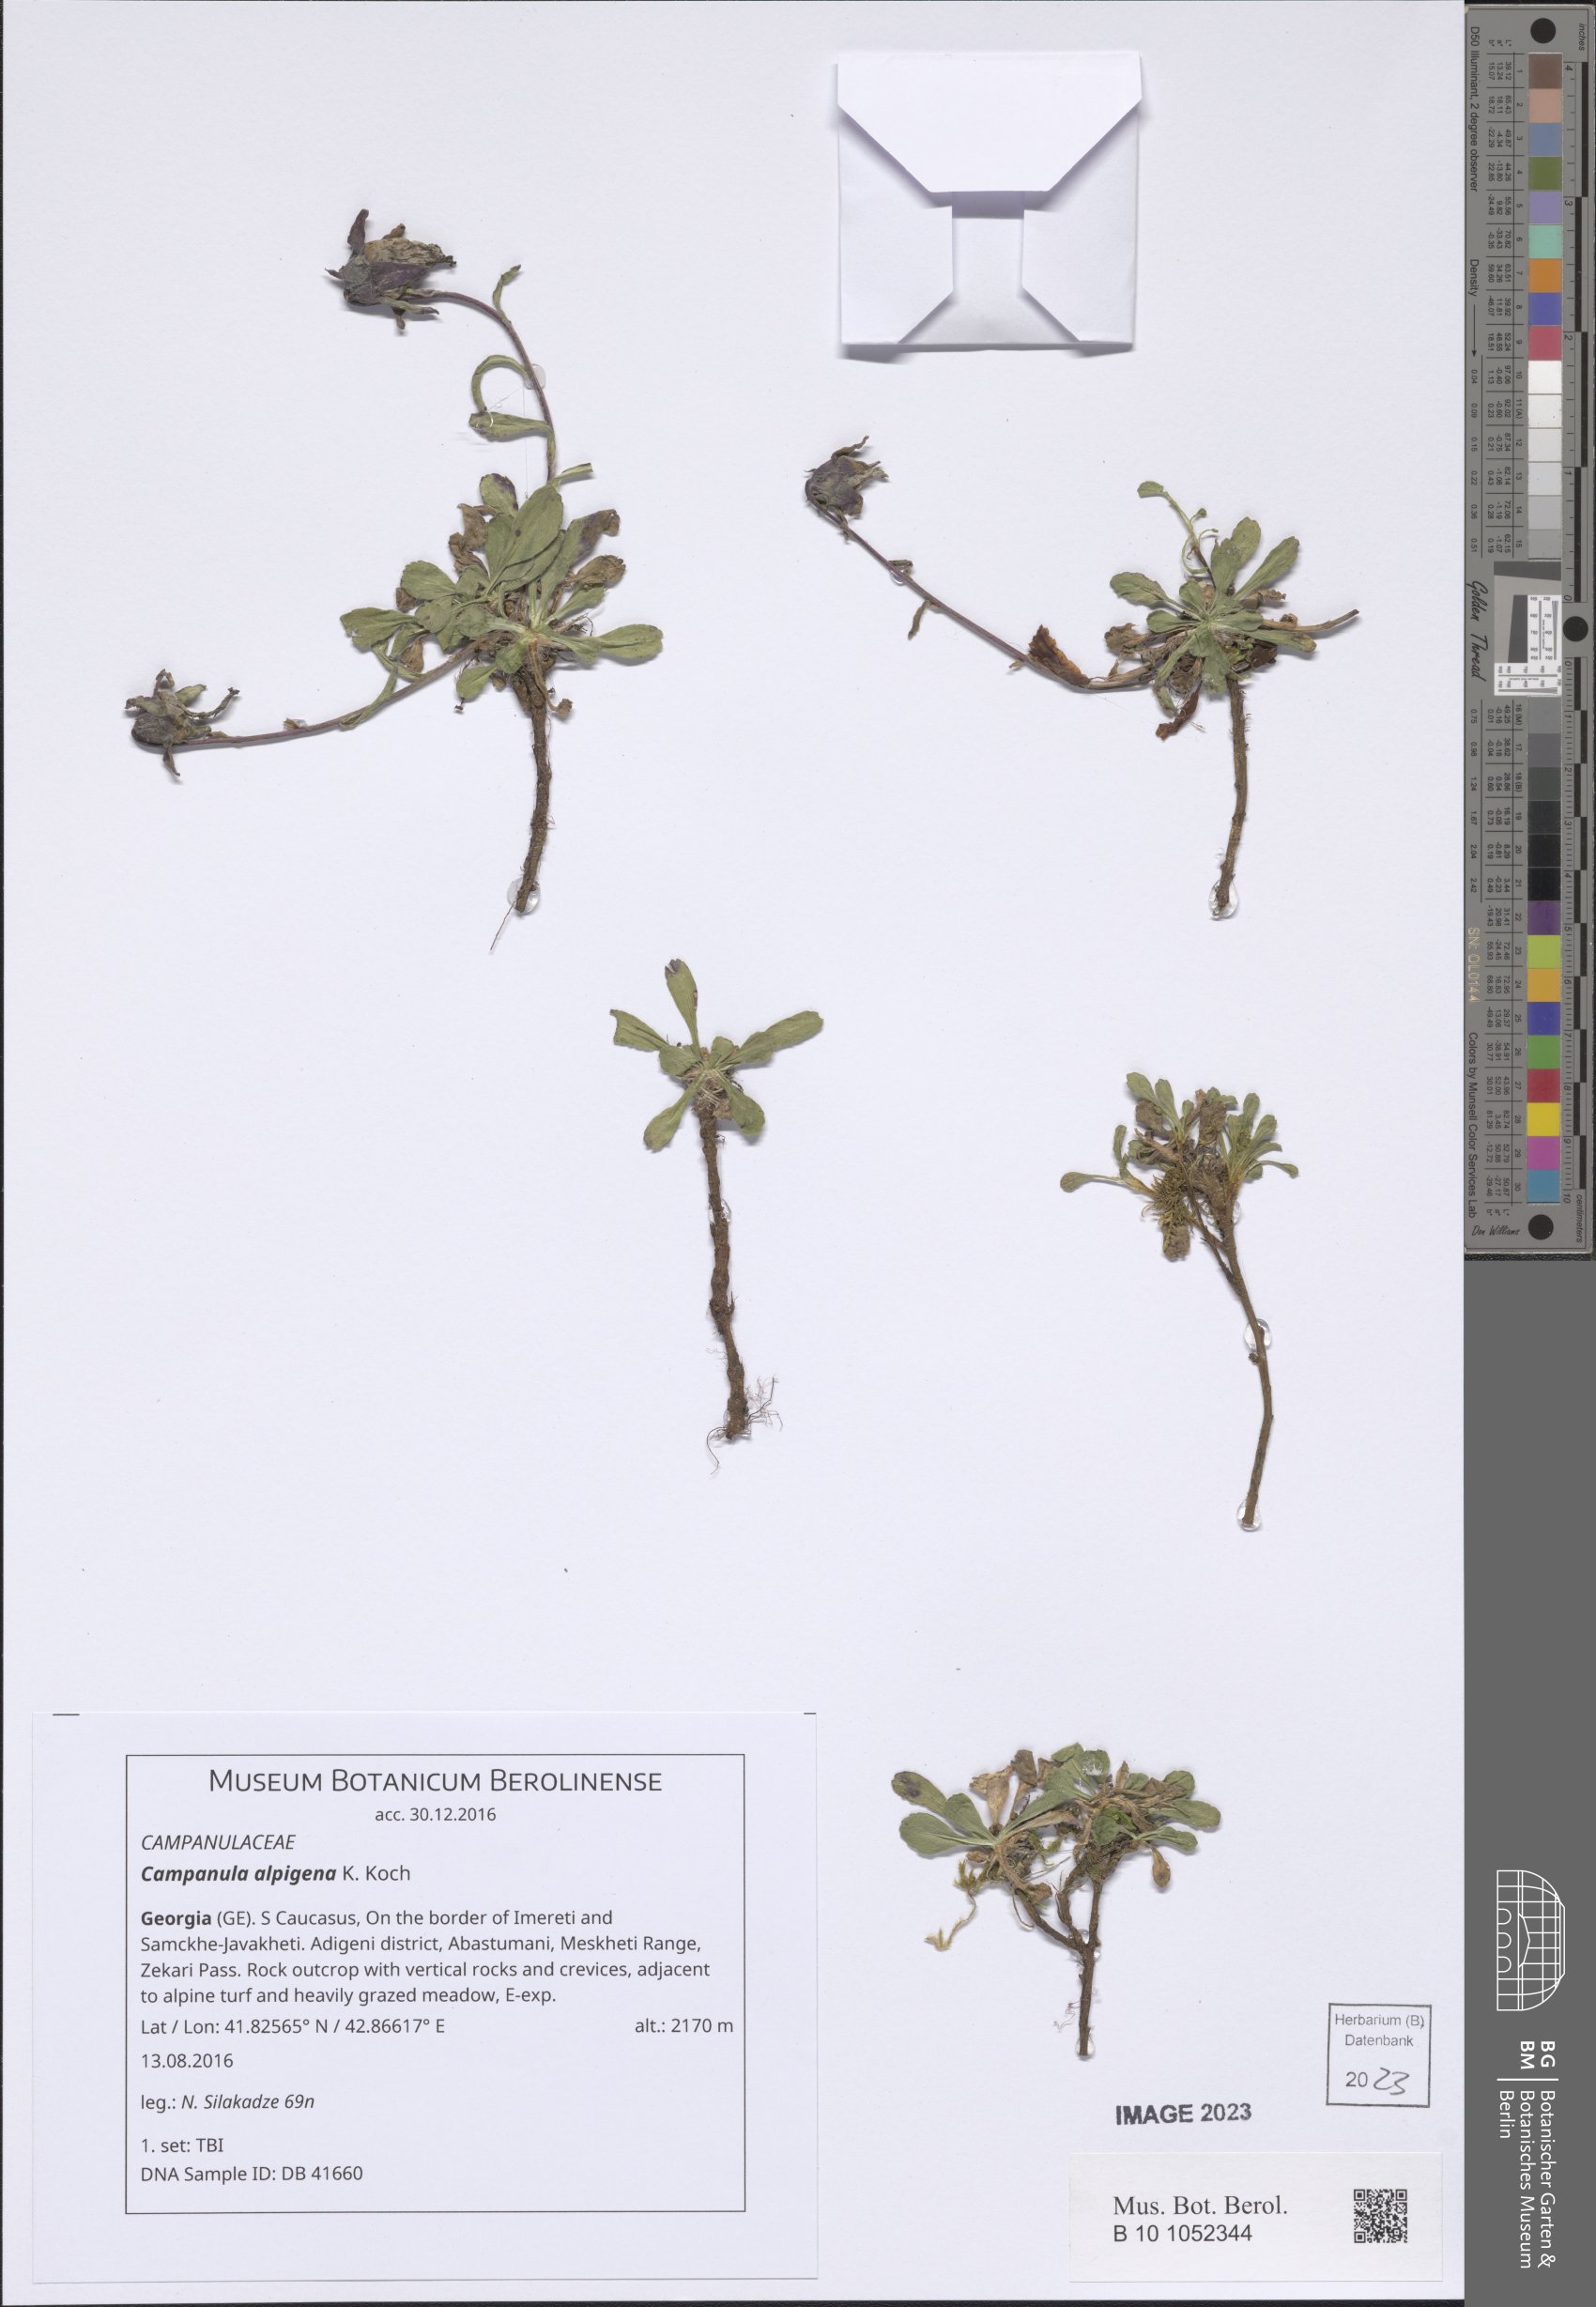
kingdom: Plantae
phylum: Tracheophyta
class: Magnoliopsida
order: Asterales
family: Campanulaceae
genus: Campanula
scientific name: Campanula saxifraga
